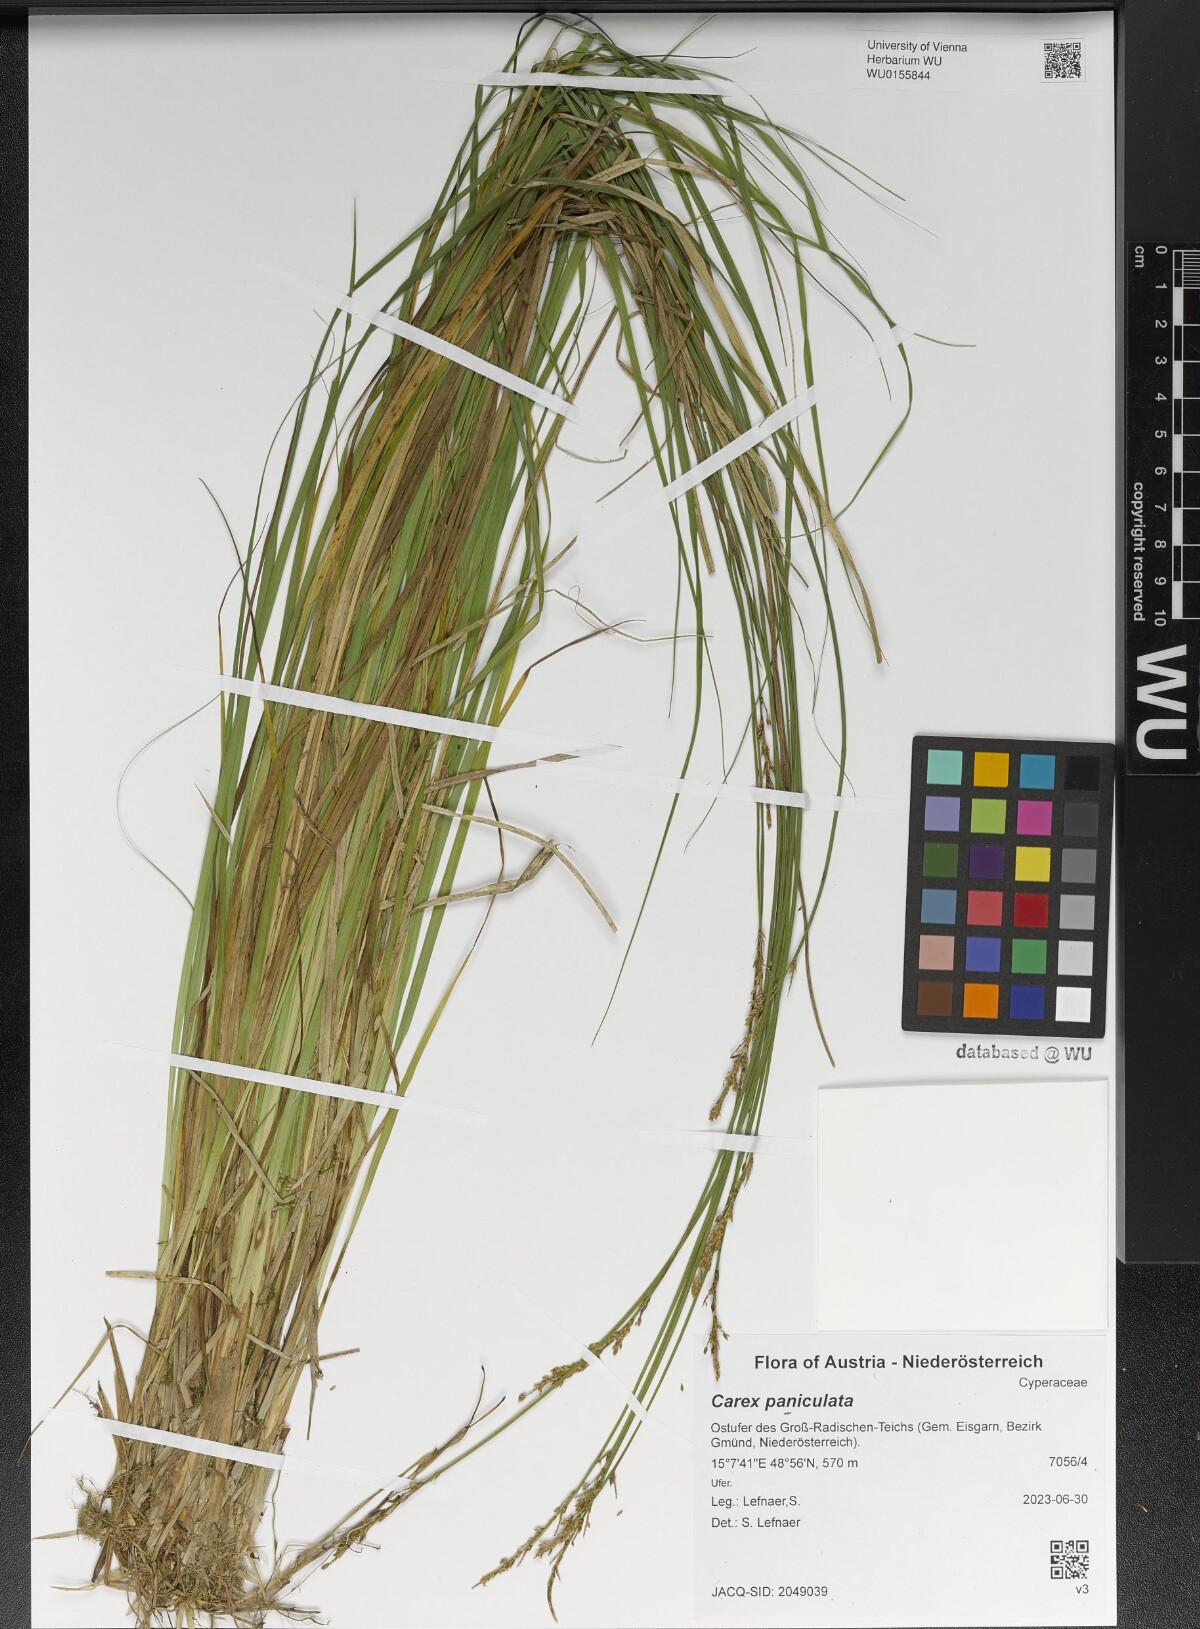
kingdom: Plantae
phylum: Tracheophyta
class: Liliopsida
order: Poales
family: Cyperaceae
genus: Carex
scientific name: Carex paniculata
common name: Greater tussock-sedge
